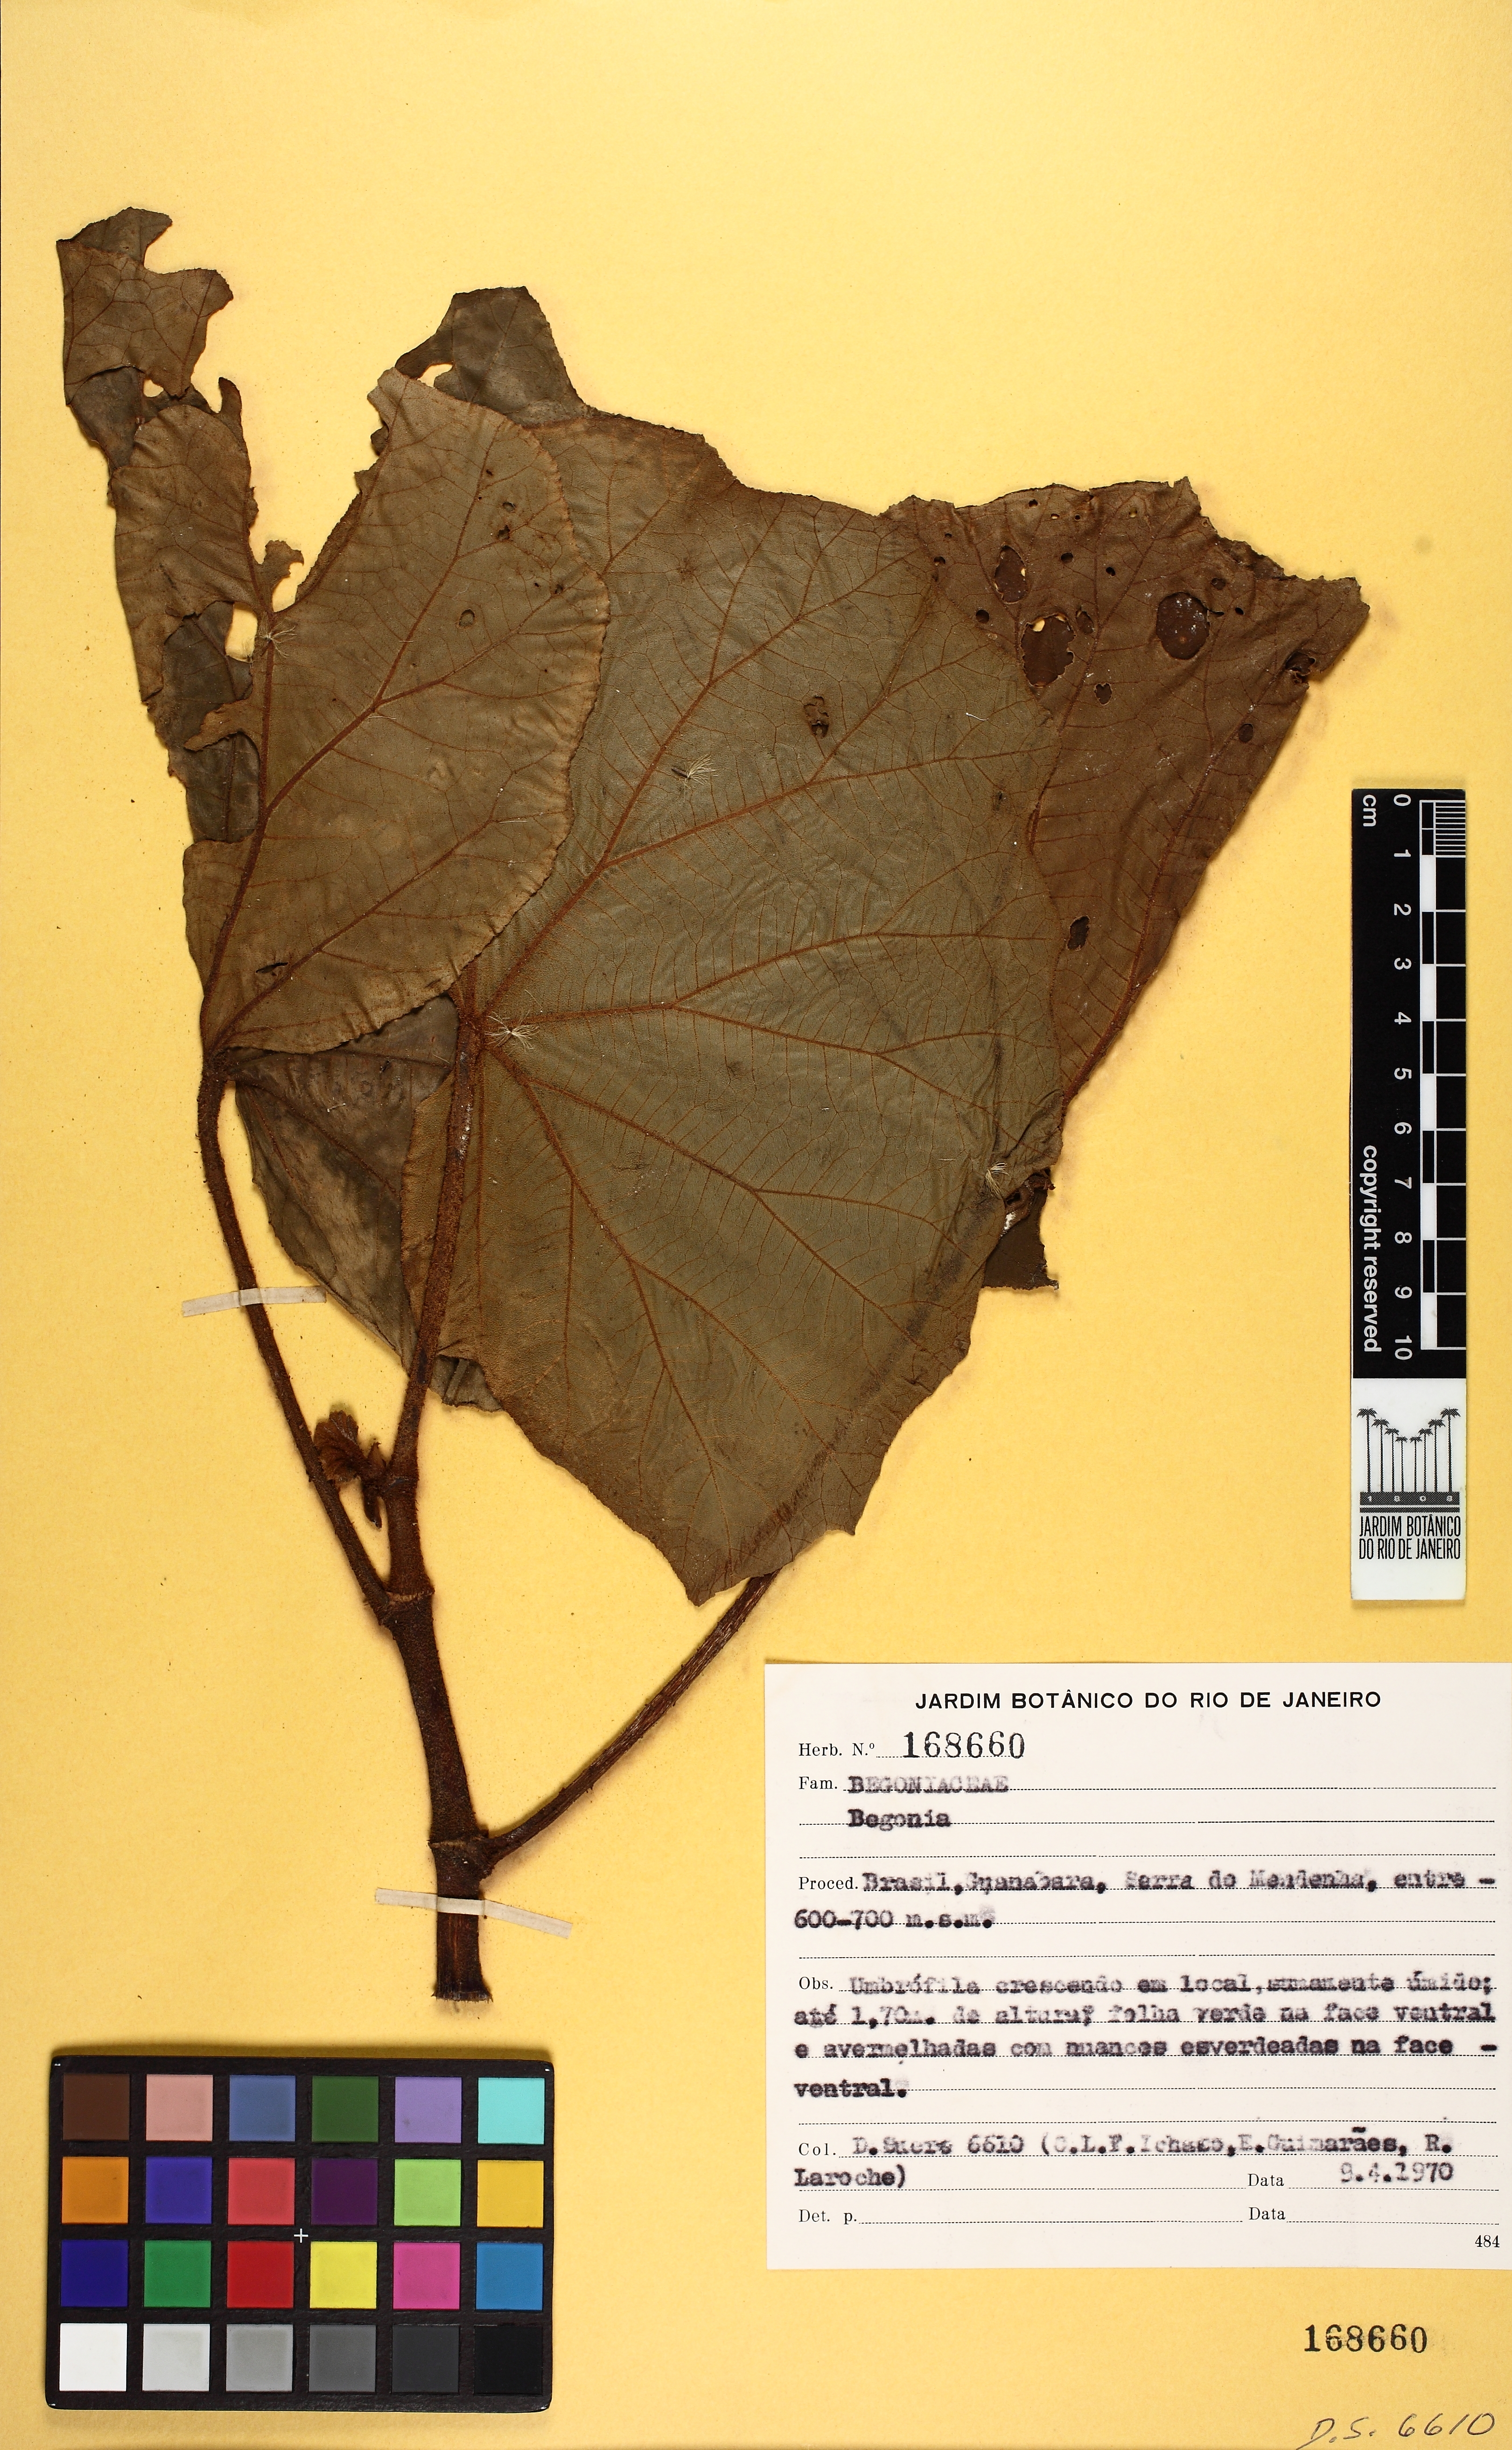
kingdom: Plantae
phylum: Tracheophyta
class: Magnoliopsida
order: Cucurbitales
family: Begoniaceae
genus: Begonia
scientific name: Begonia huegelii
